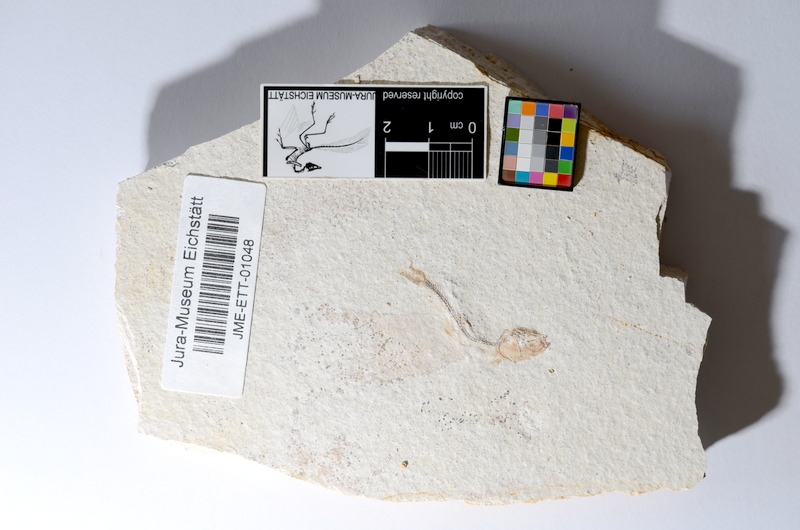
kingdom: Animalia
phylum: Chordata
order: Salmoniformes
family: Orthogonikleithridae
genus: Orthogonikleithrus
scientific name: Orthogonikleithrus hoelli
